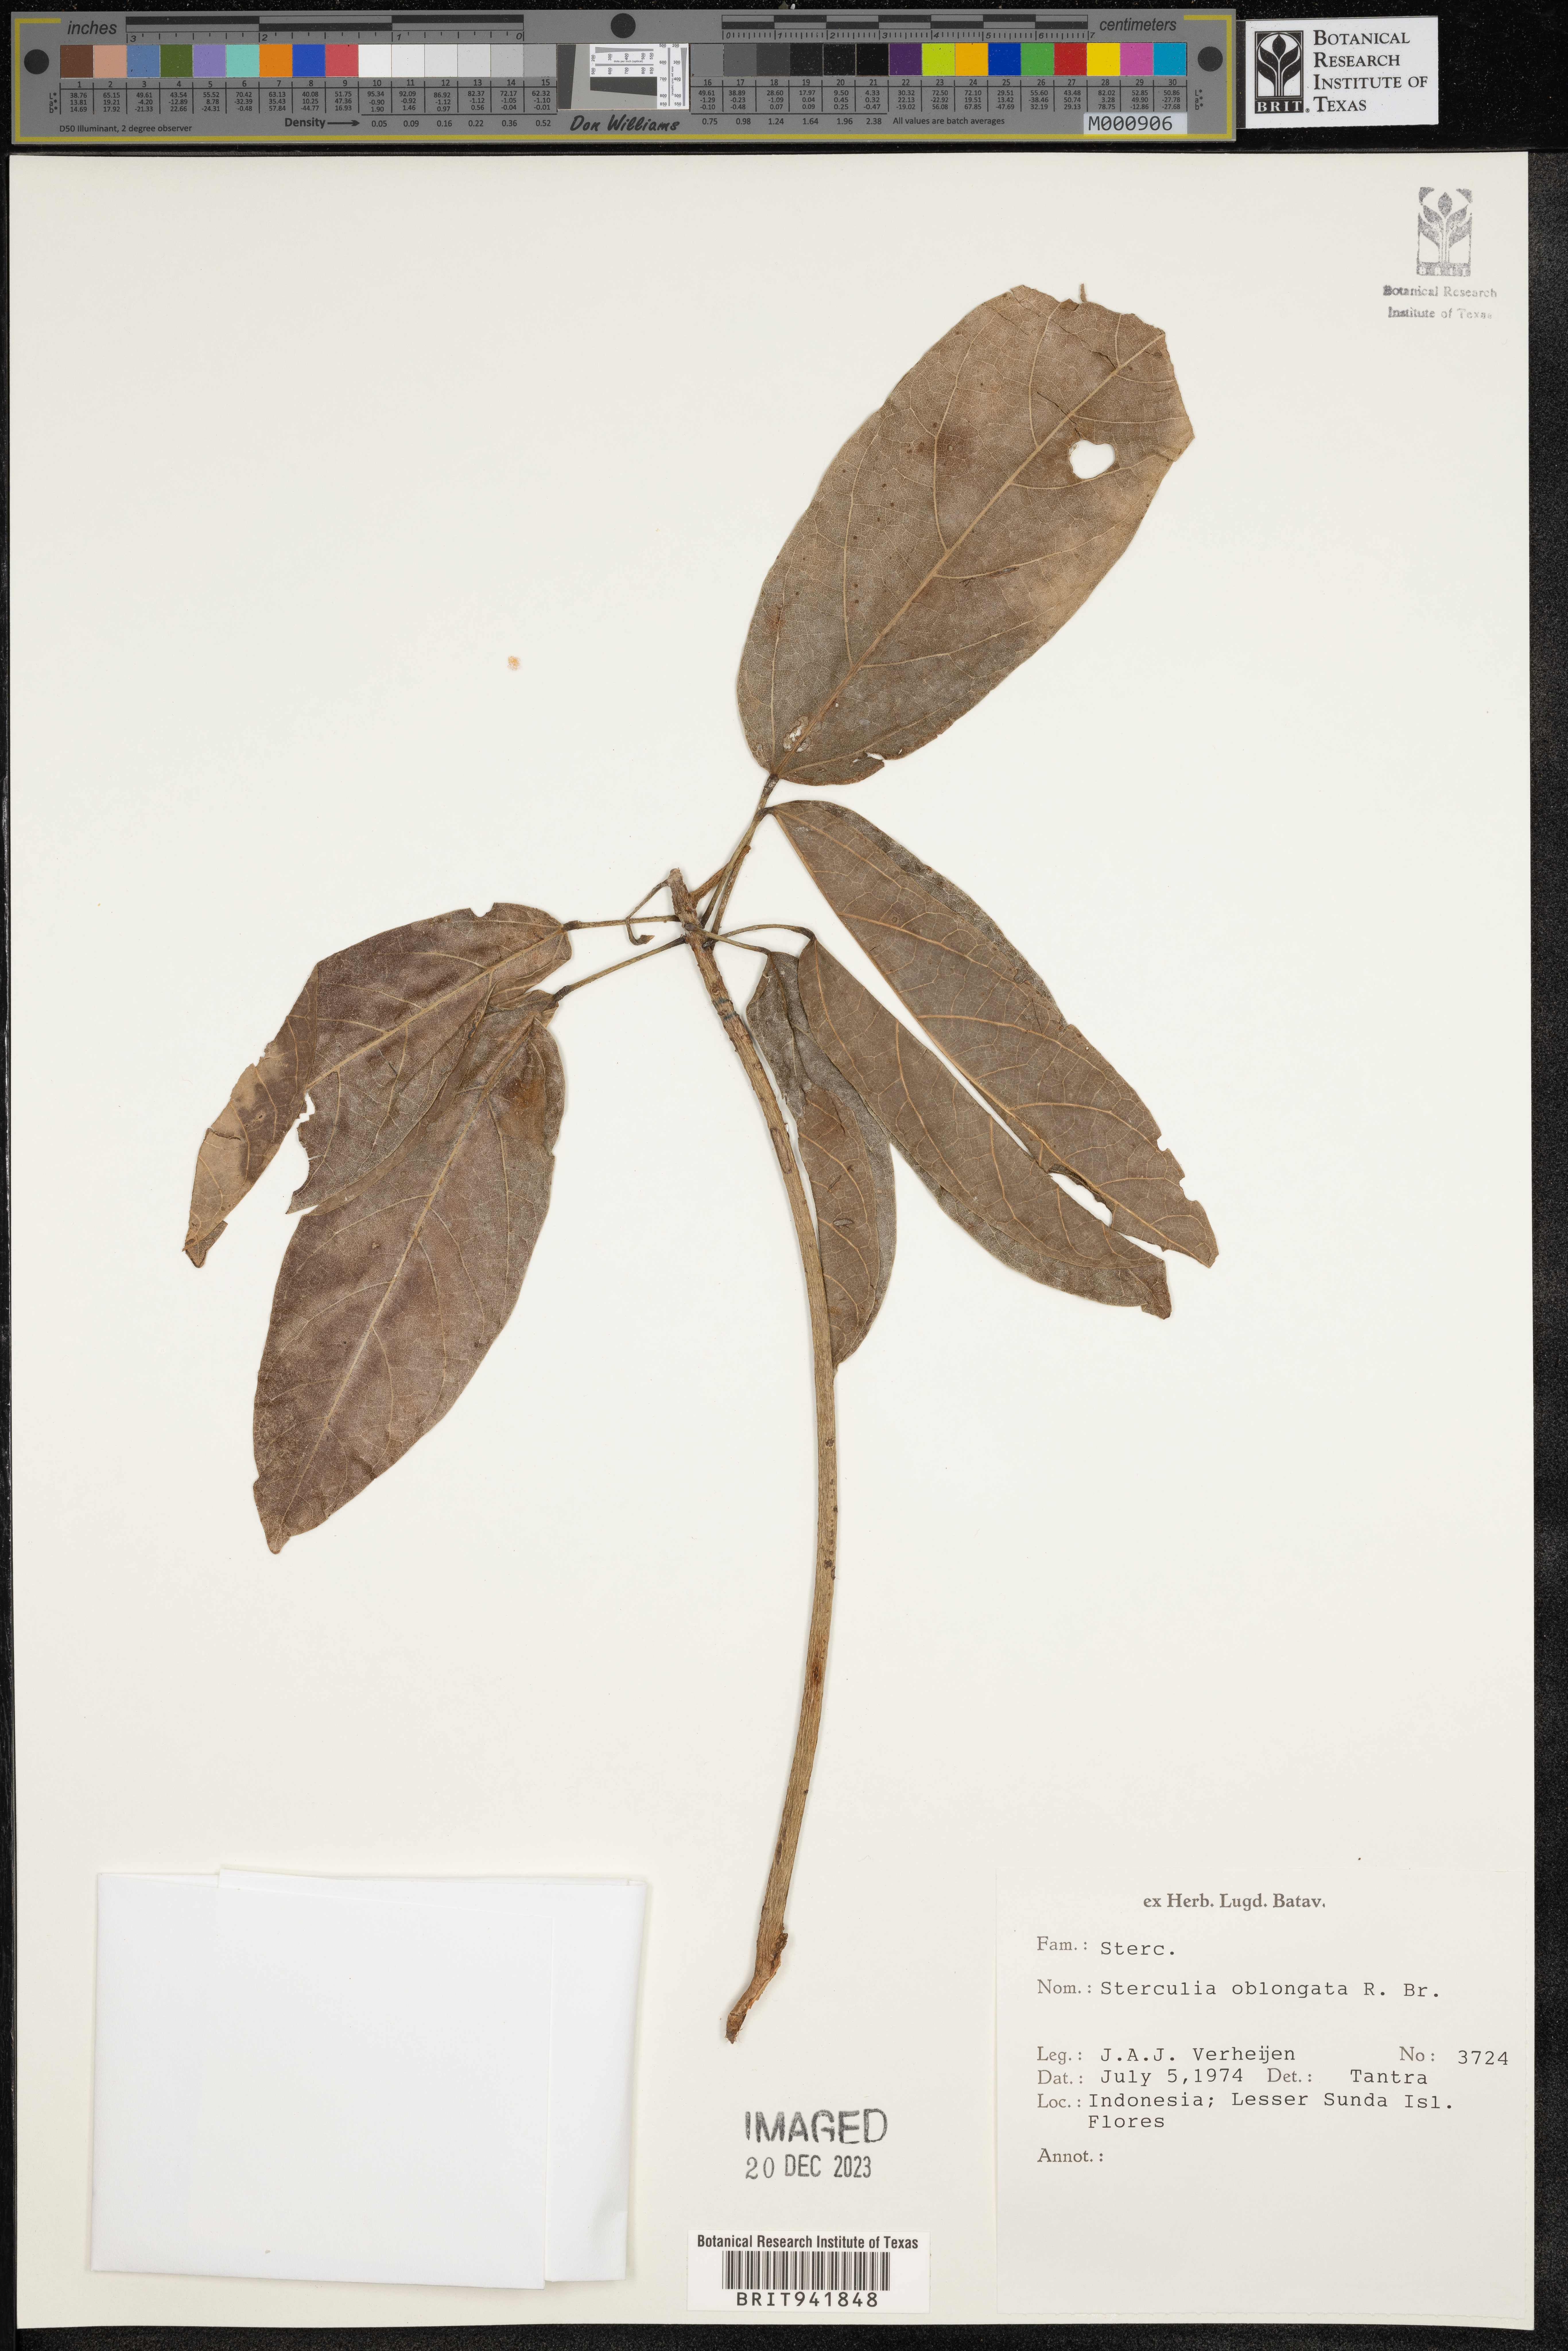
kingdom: Plantae
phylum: Tracheophyta
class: Magnoliopsida
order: Malvales
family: Malvaceae
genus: Sterculia
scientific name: Sterculia
